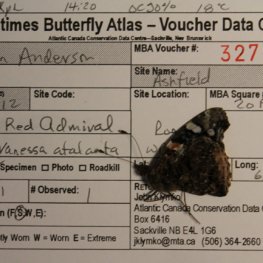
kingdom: Animalia
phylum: Arthropoda
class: Insecta
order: Lepidoptera
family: Nymphalidae
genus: Vanessa
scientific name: Vanessa atalanta
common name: Red Admiral
